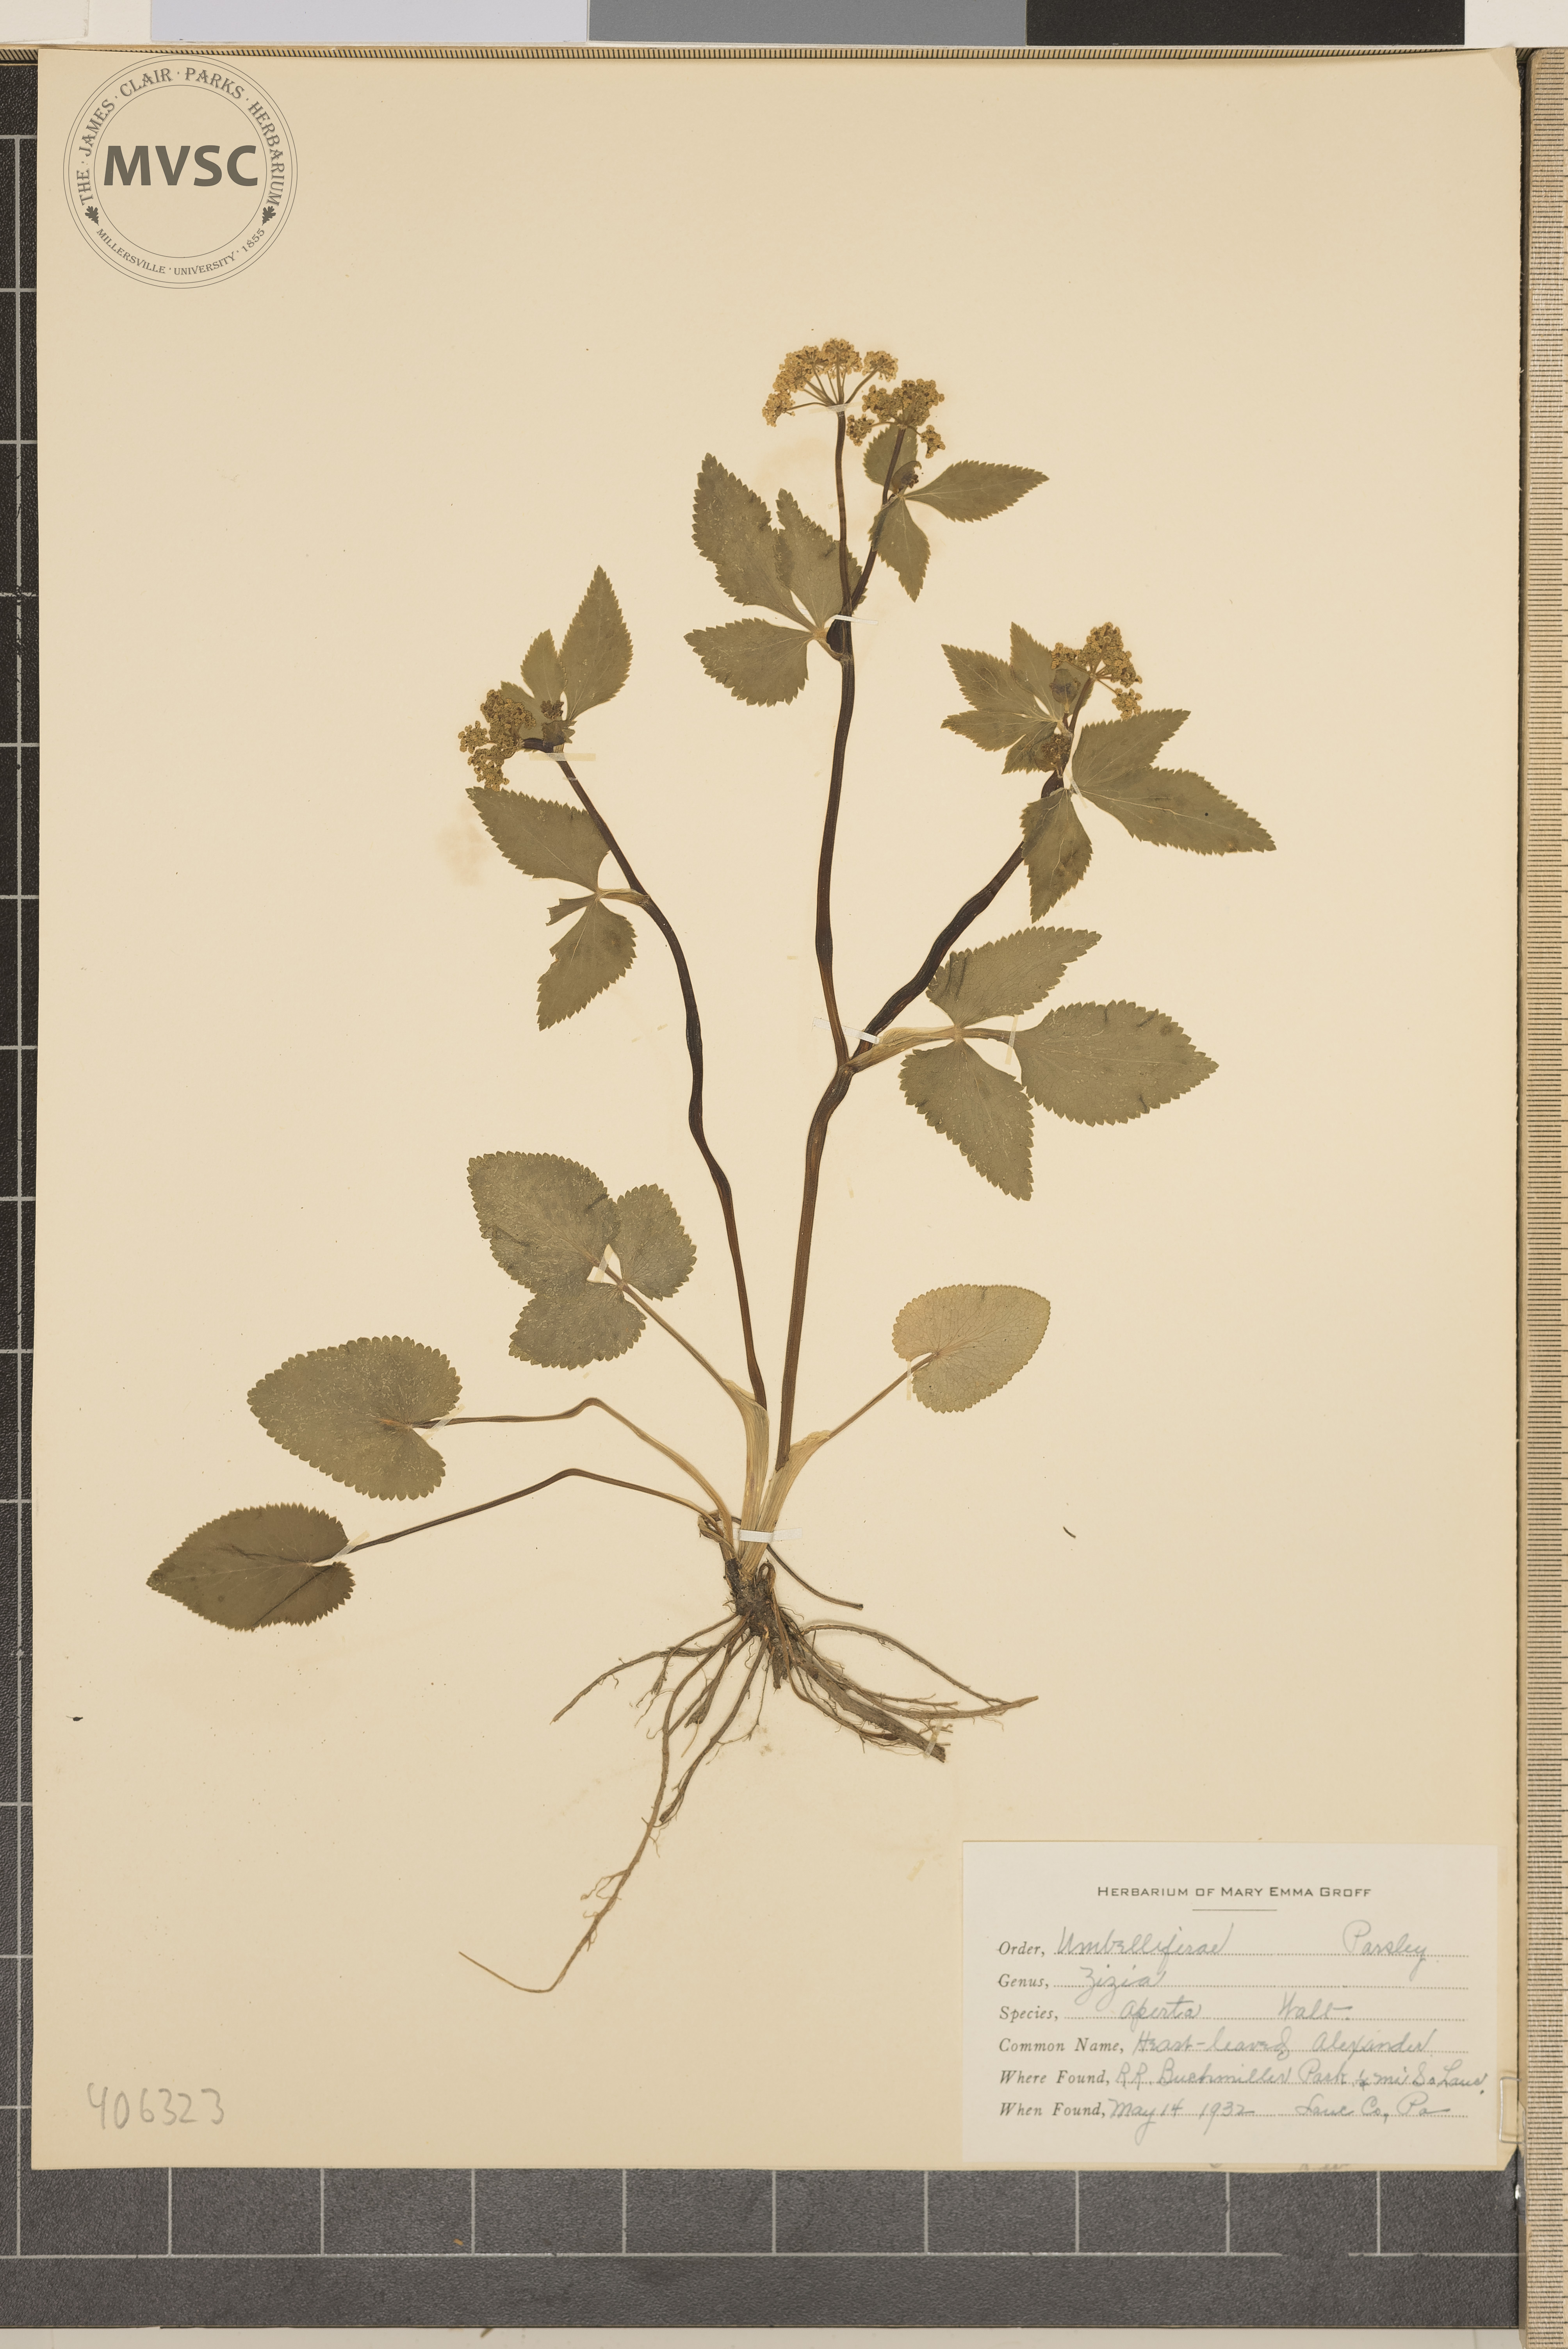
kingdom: Plantae
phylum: Tracheophyta
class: Magnoliopsida
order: Apiales
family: Apiaceae
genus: Zizia
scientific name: Zizia aptera
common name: Heart-leaved Alexanders
